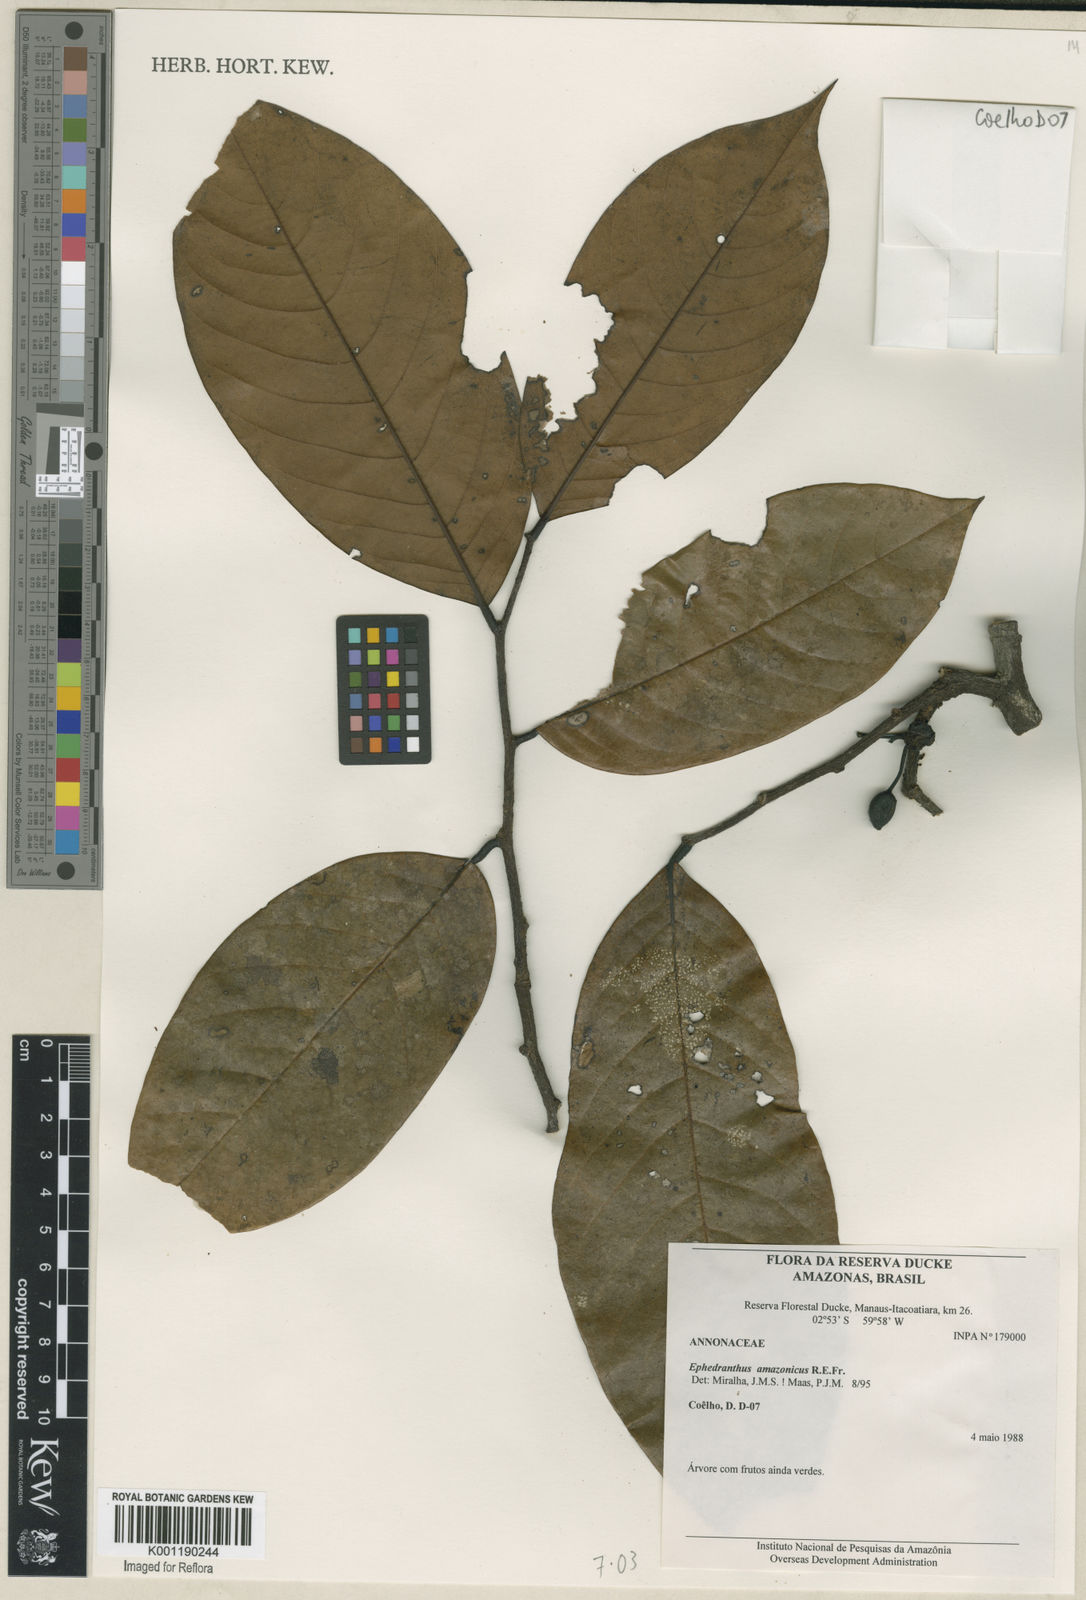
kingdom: Plantae
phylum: Tracheophyta
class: Magnoliopsida
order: Magnoliales
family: Annonaceae
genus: Ephedranthus
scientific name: Ephedranthus amazonicus
